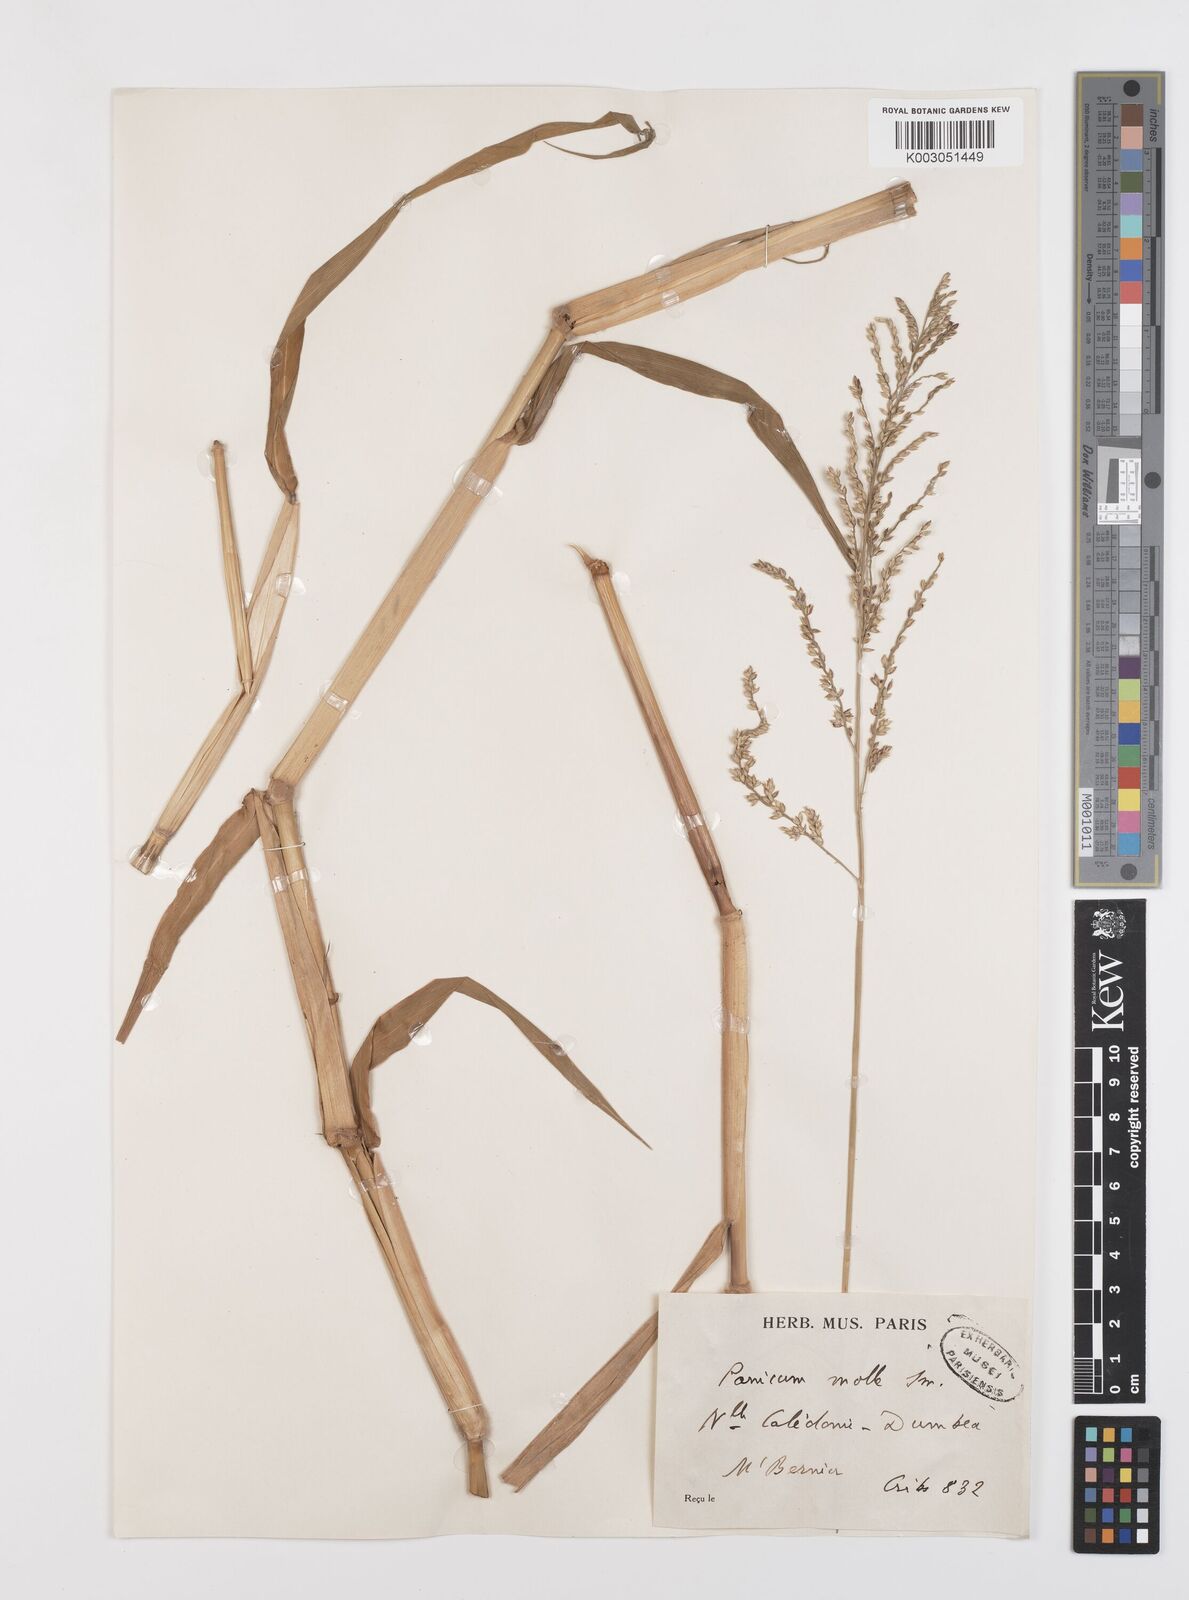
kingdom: Plantae
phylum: Tracheophyta
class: Liliopsida
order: Poales
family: Poaceae
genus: Urochloa
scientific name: Urochloa mutica
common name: Para grass
